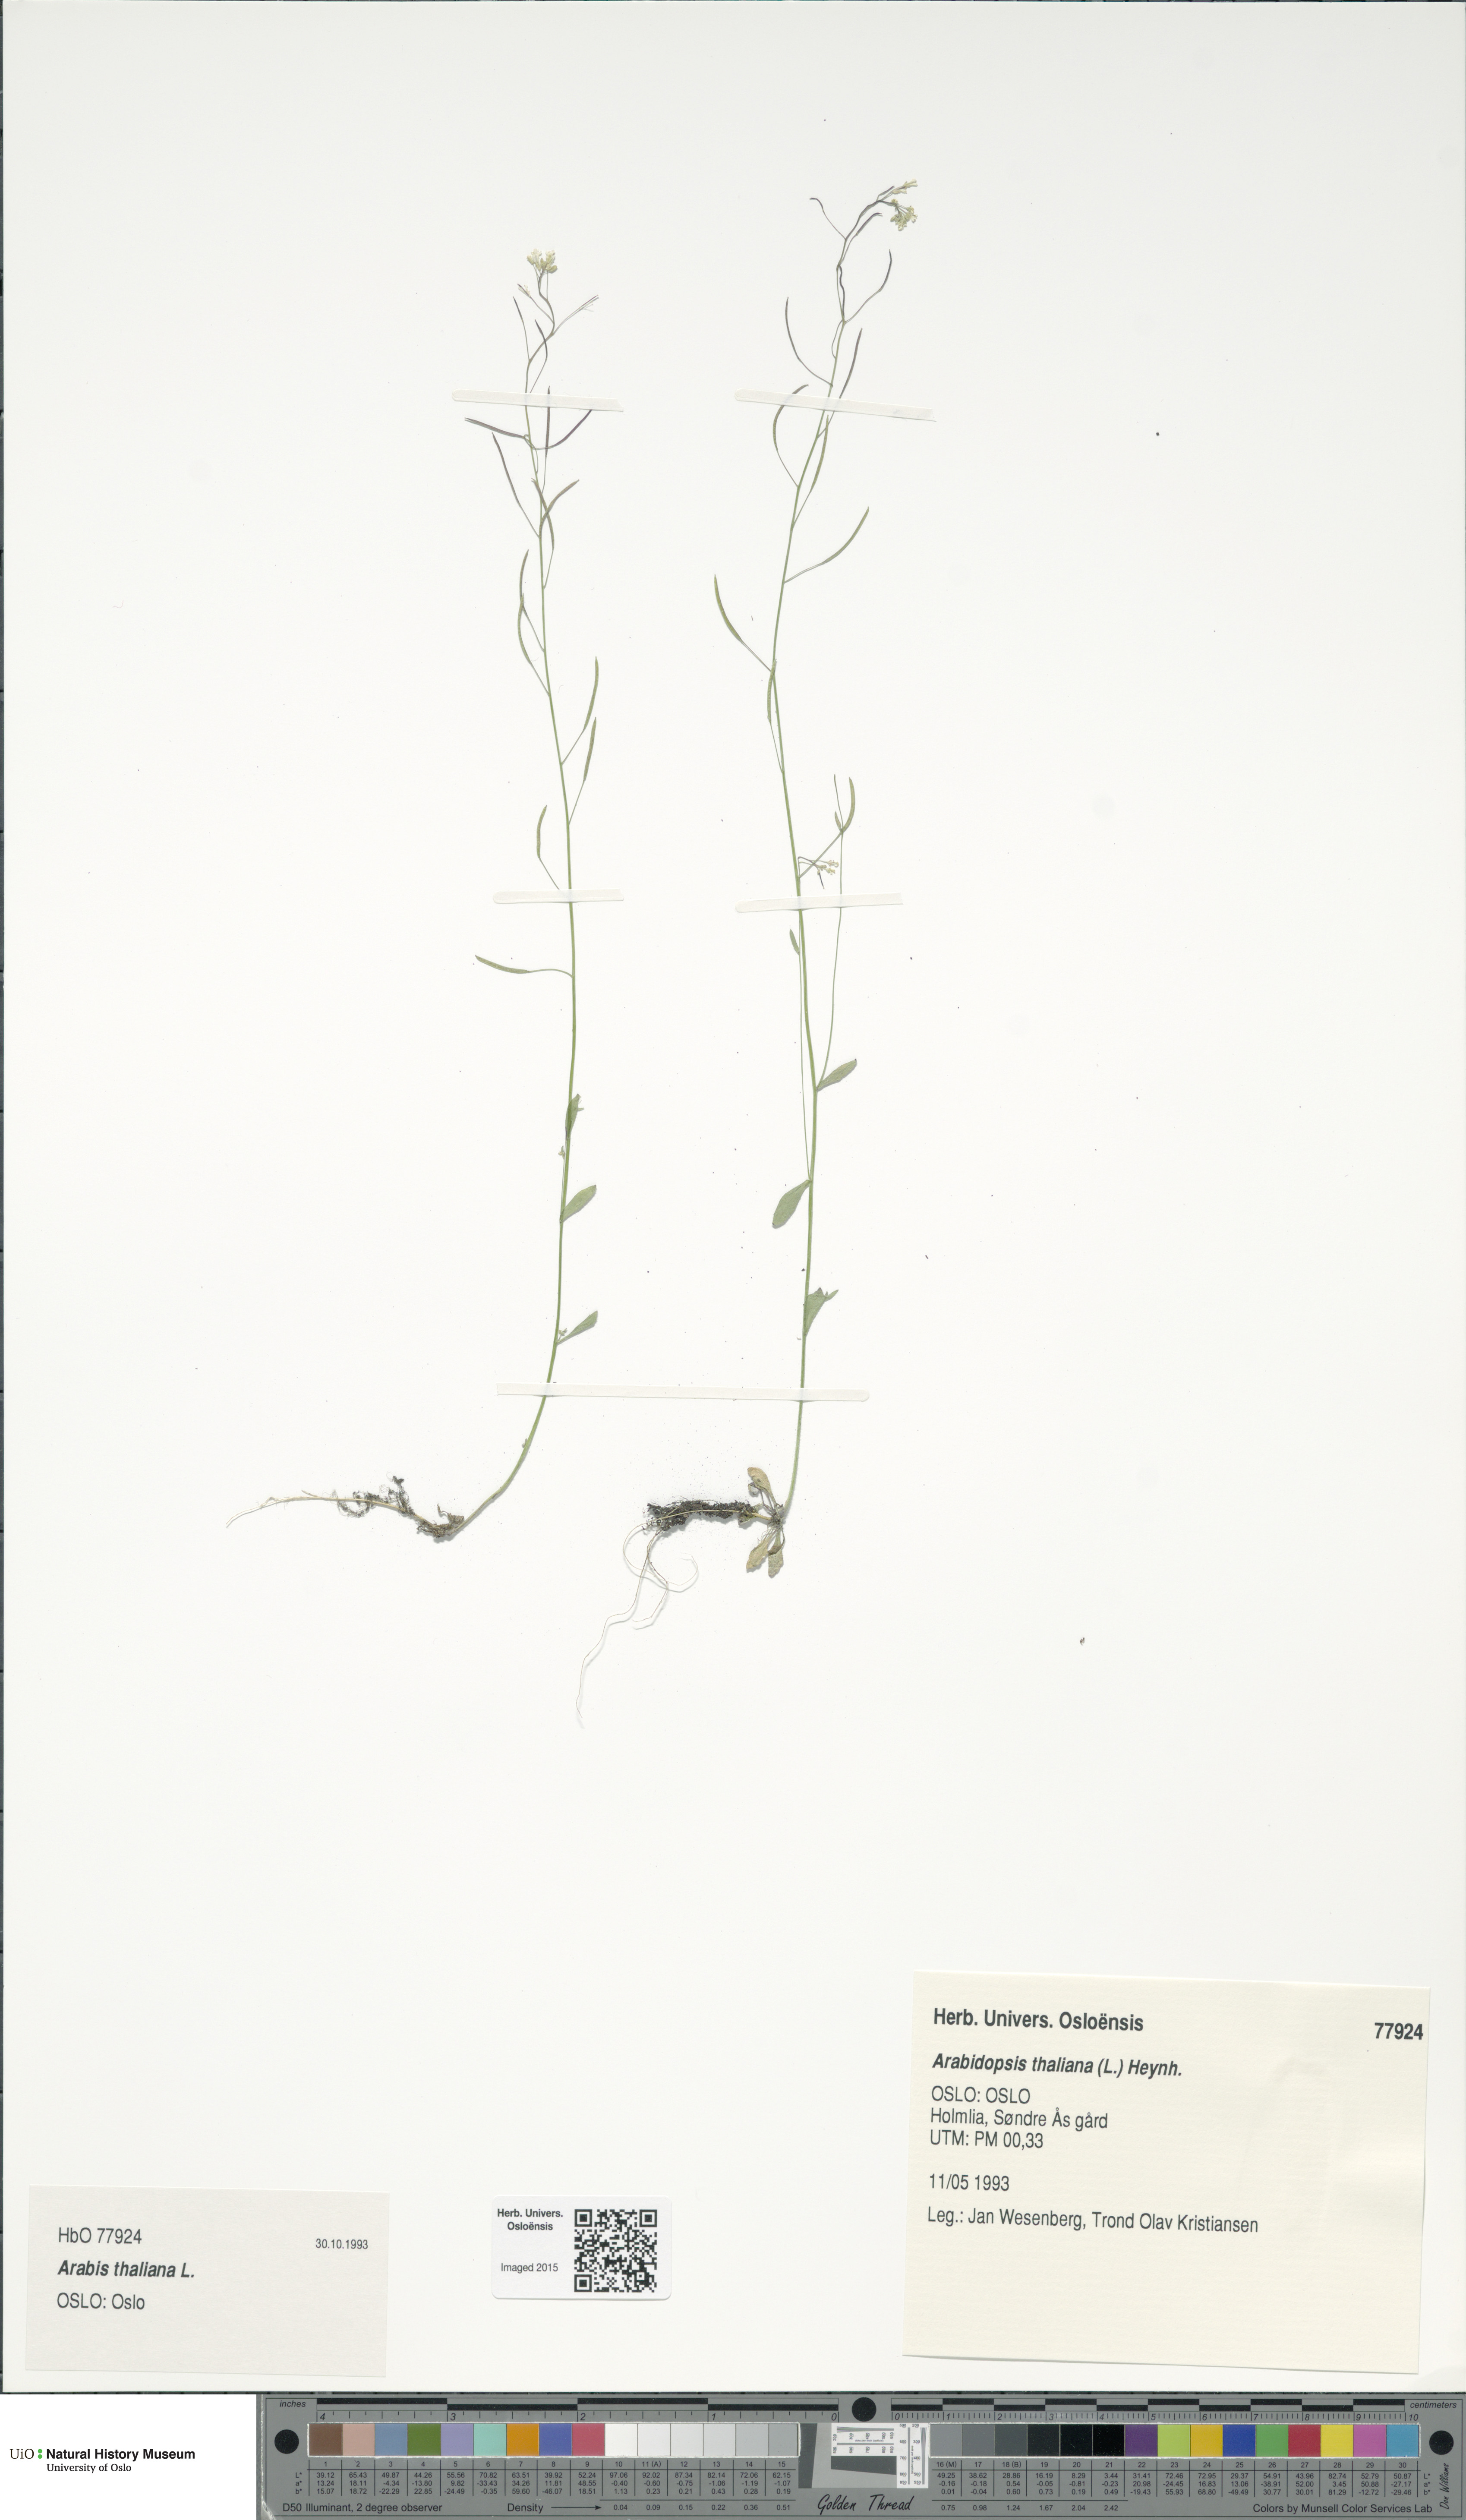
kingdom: Plantae
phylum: Tracheophyta
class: Magnoliopsida
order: Brassicales
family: Brassicaceae
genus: Arabidopsis
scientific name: Arabidopsis thaliana
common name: Thale cress
